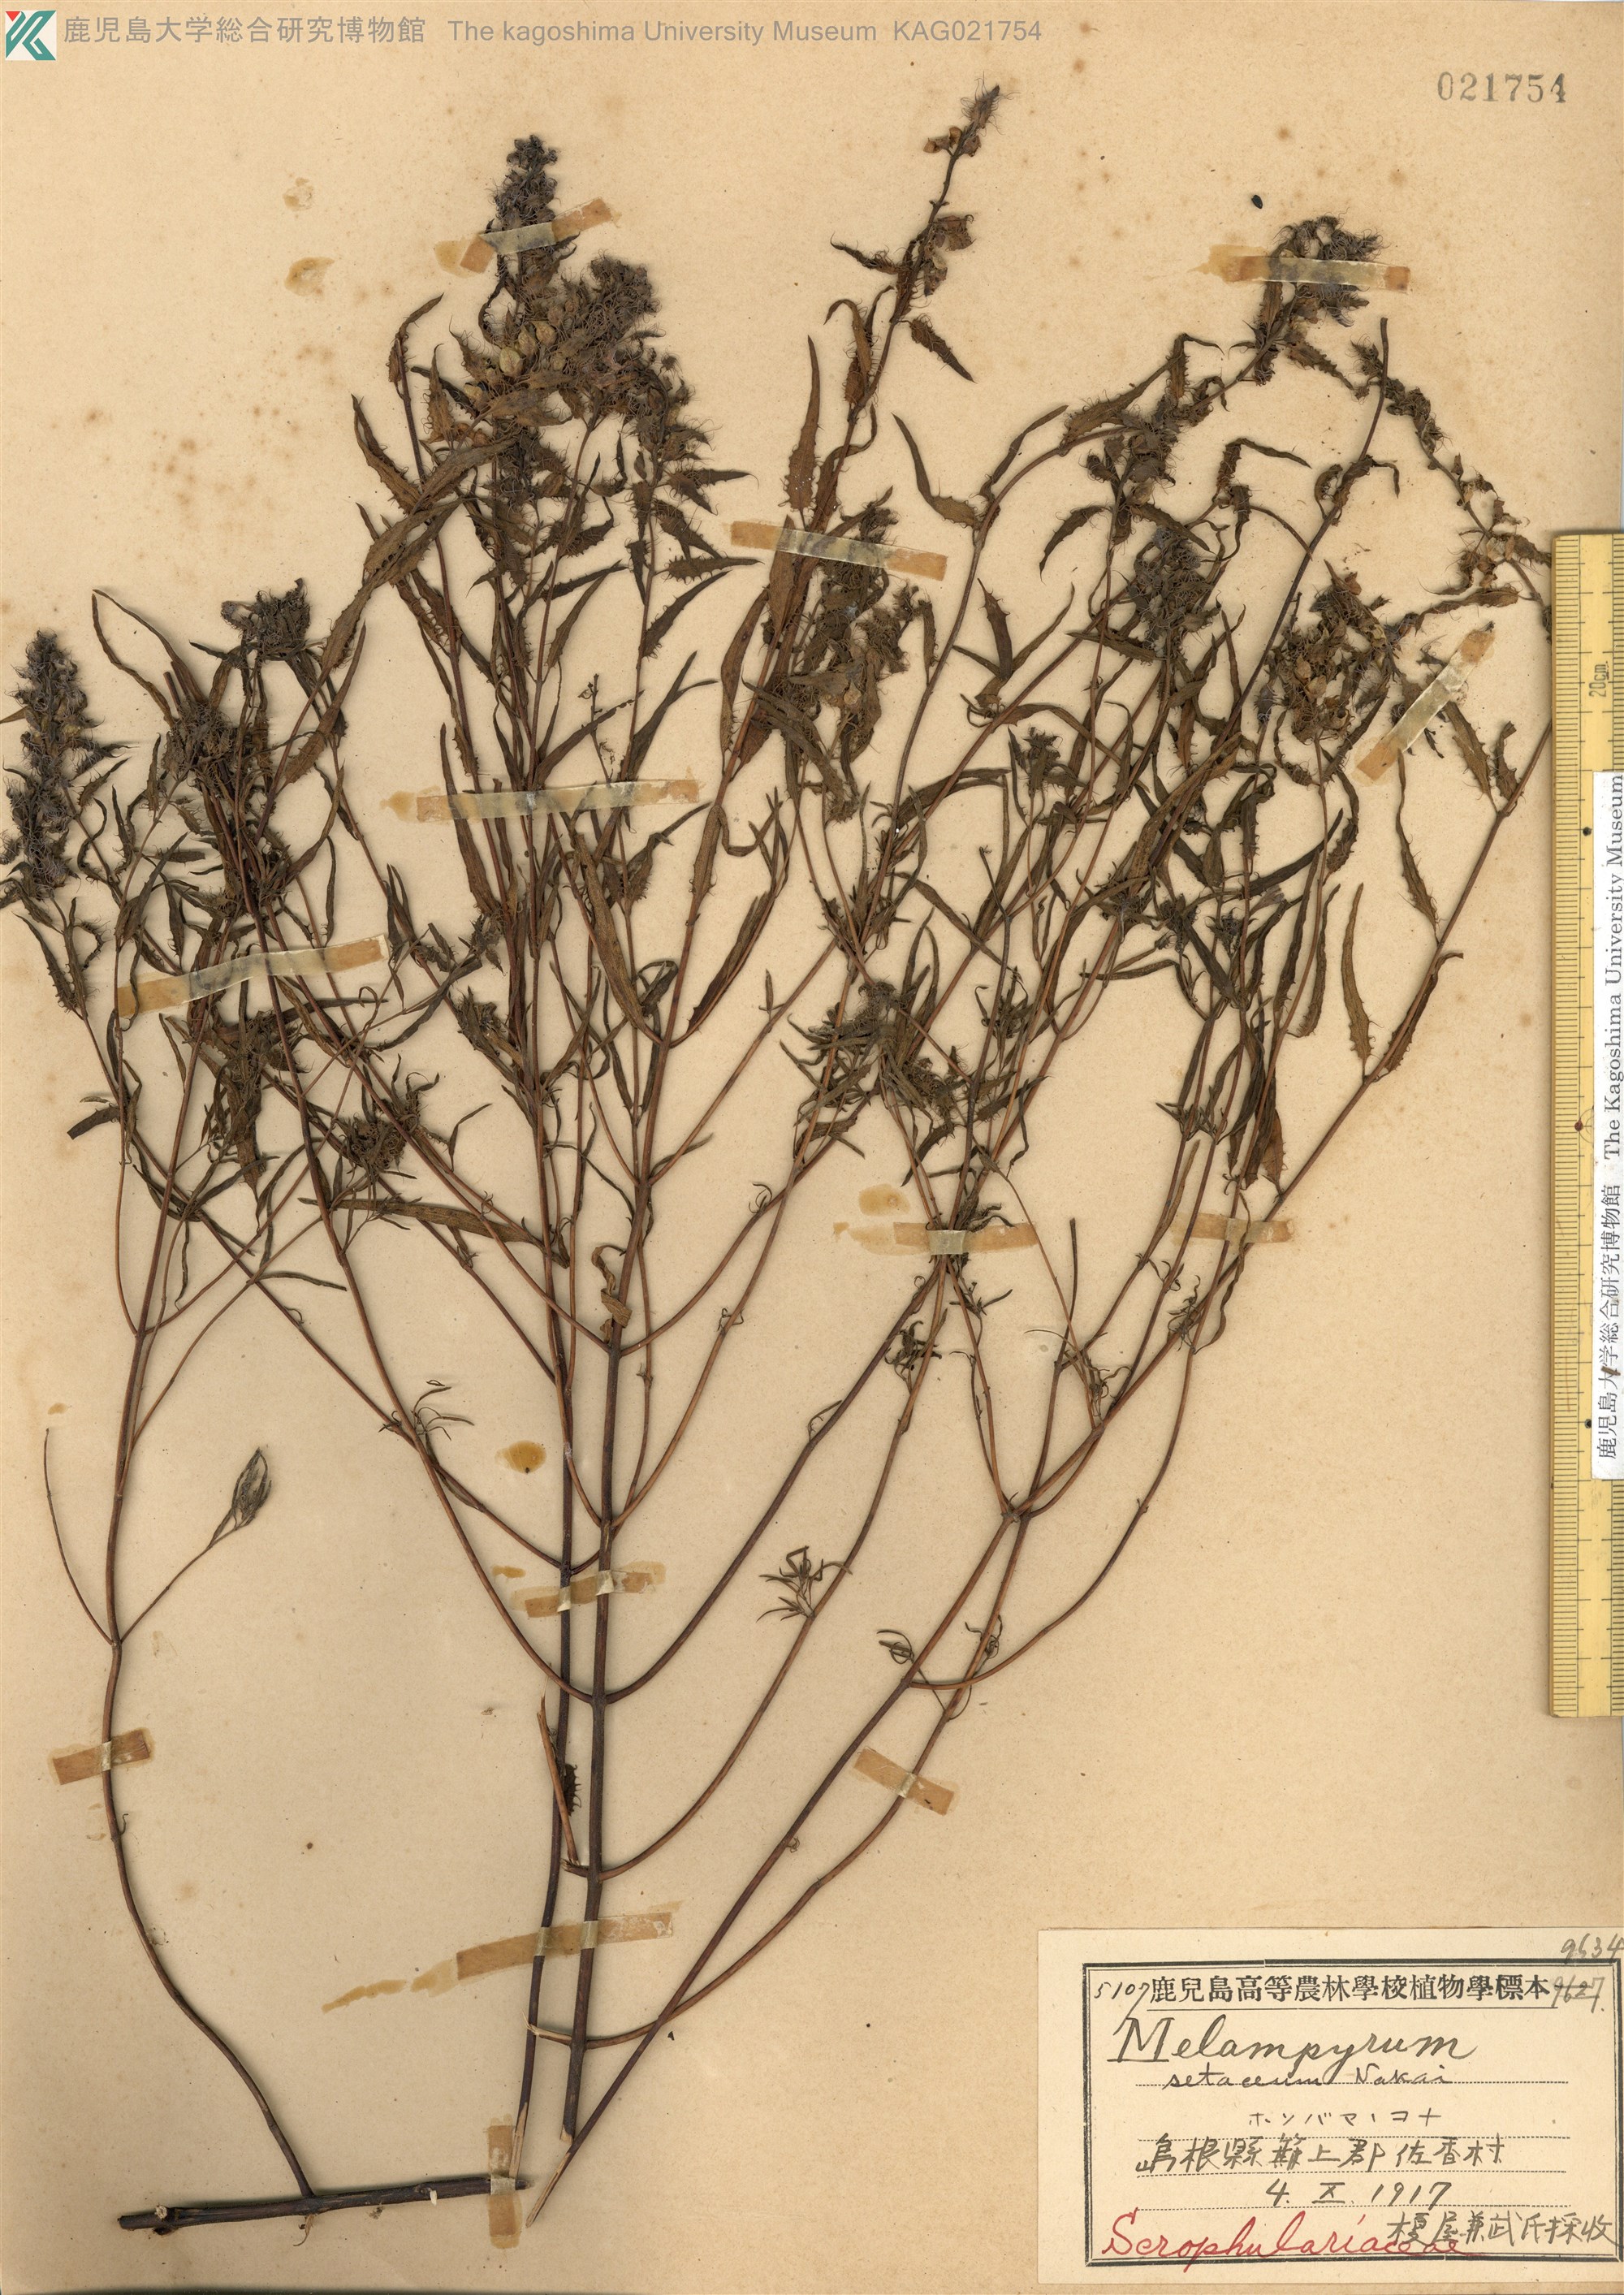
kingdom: Plantae
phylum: Tracheophyta
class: Magnoliopsida
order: Lamiales
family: Orobanchaceae
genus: Melampyrum
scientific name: Melampyrum setaceum
